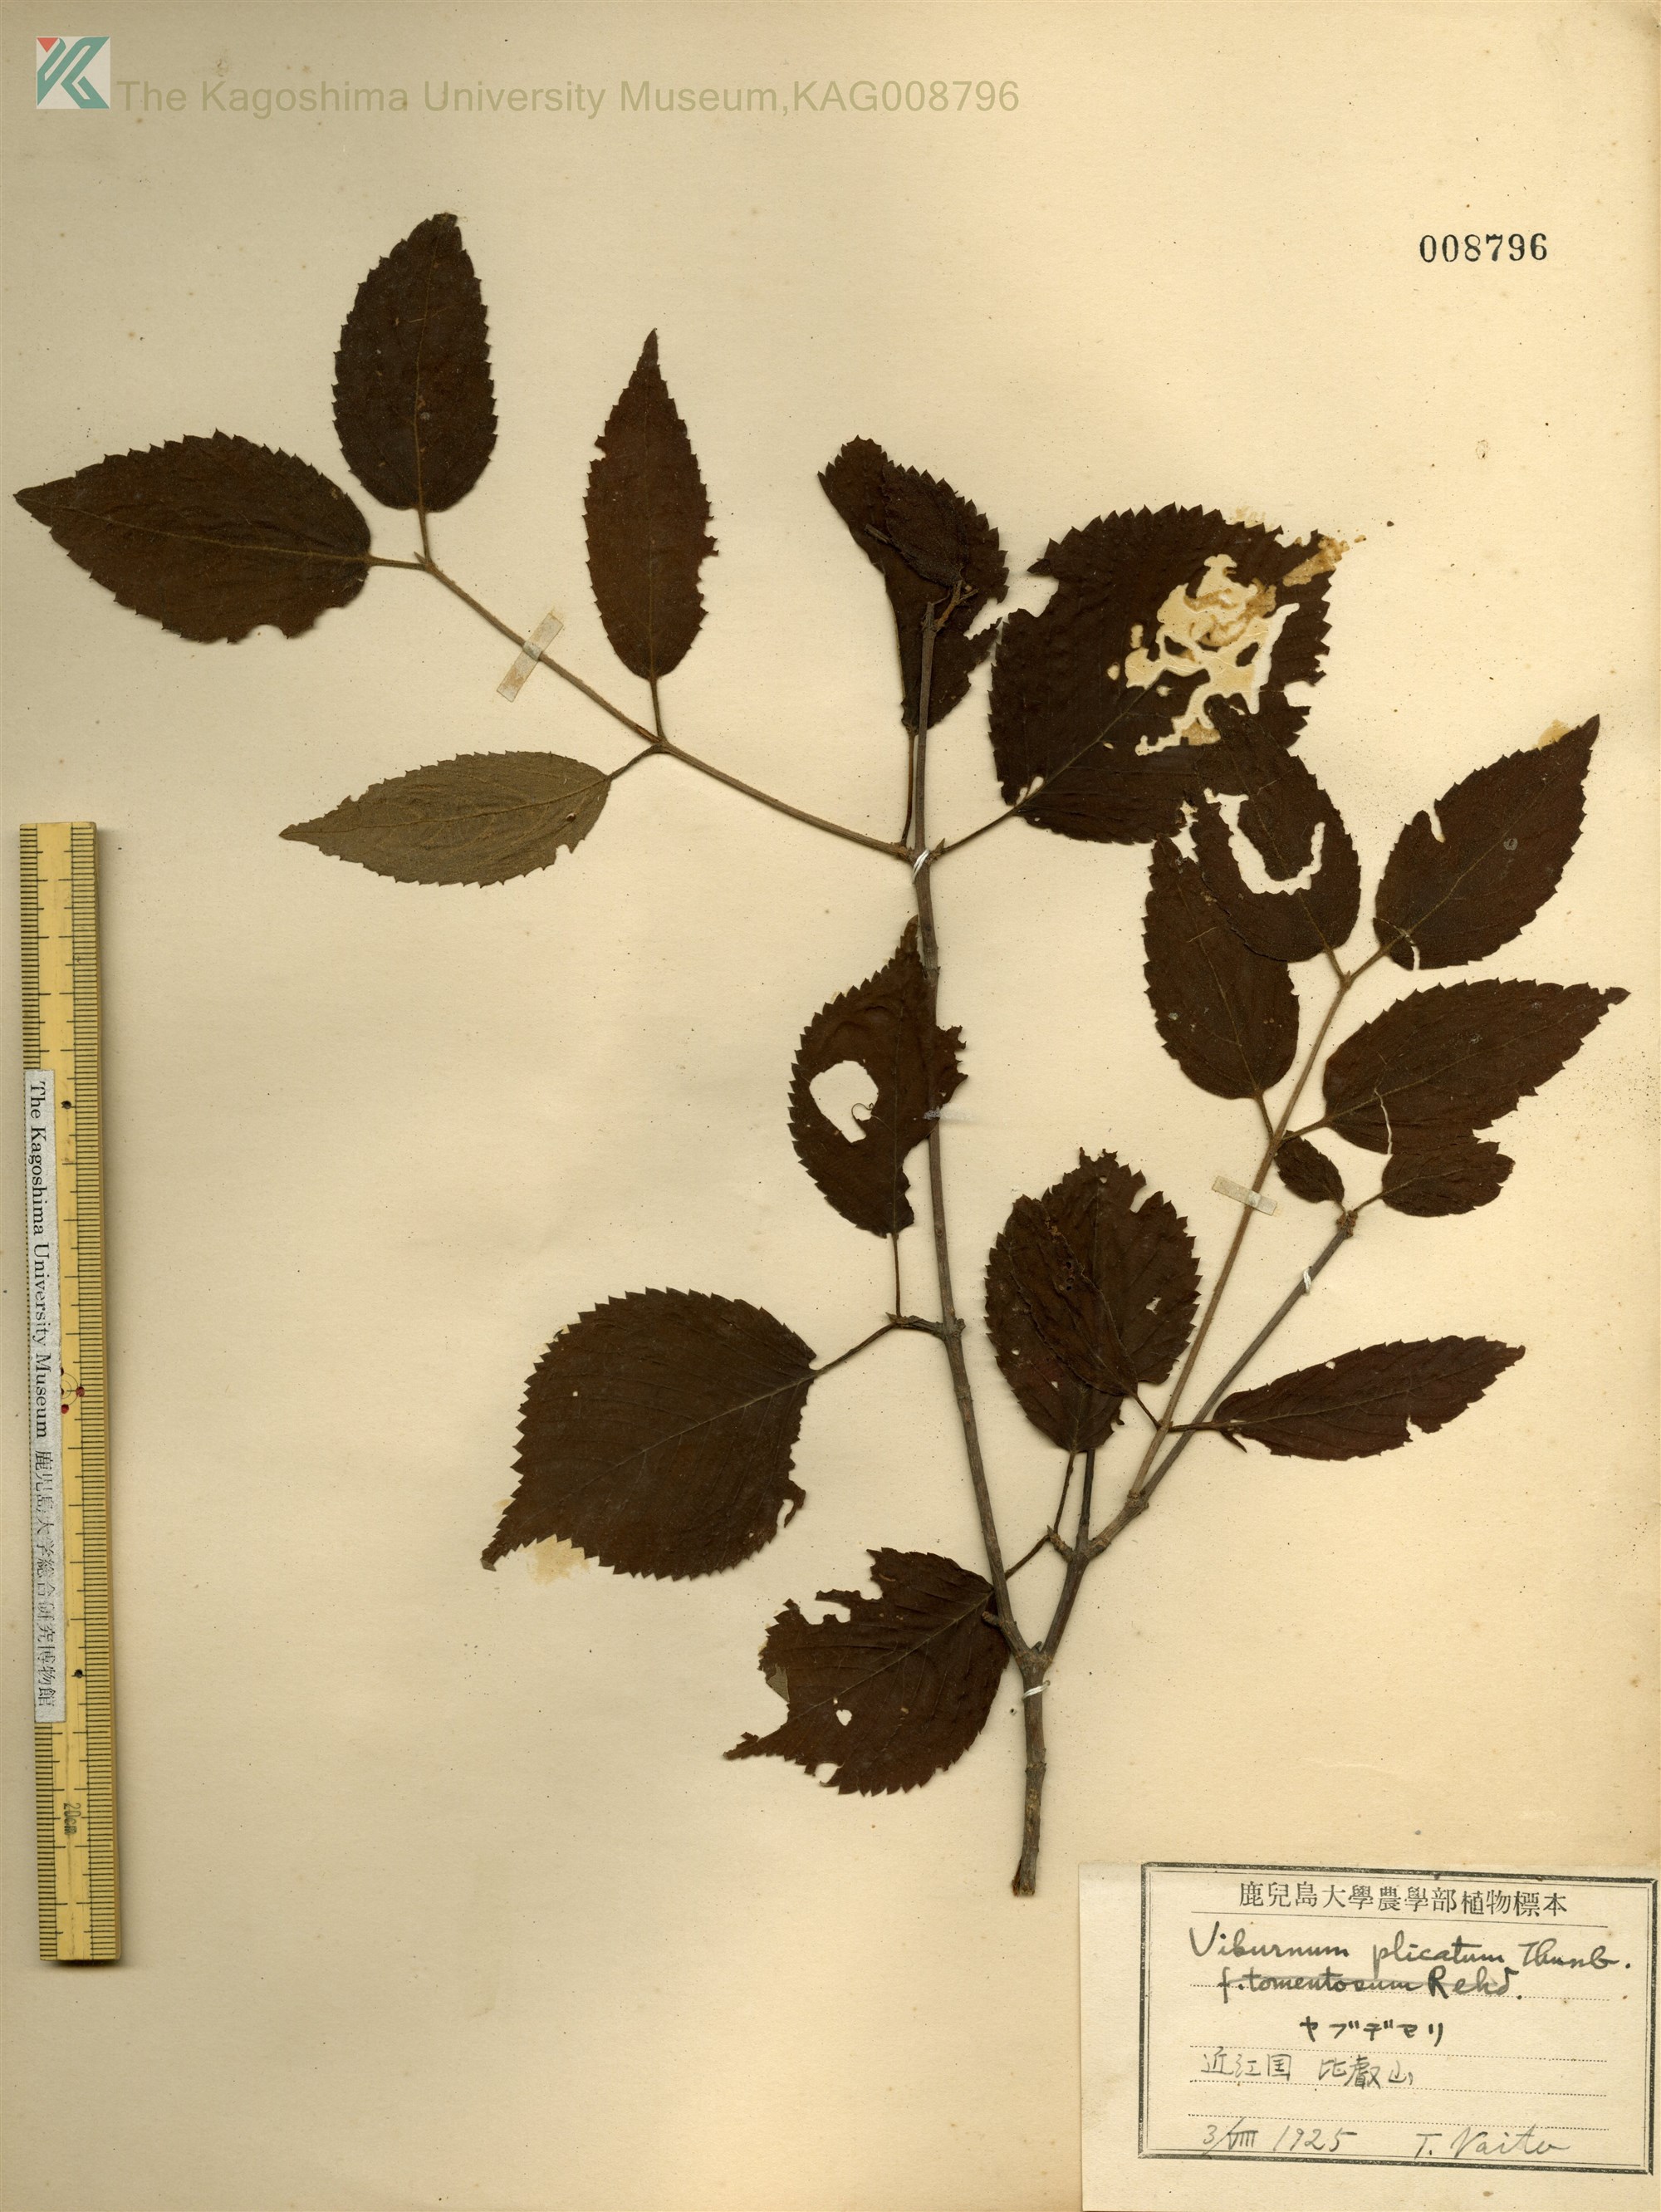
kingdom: Plantae
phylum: Tracheophyta
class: Magnoliopsida
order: Dipsacales
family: Viburnaceae
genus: Viburnum
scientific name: Viburnum plicatum
